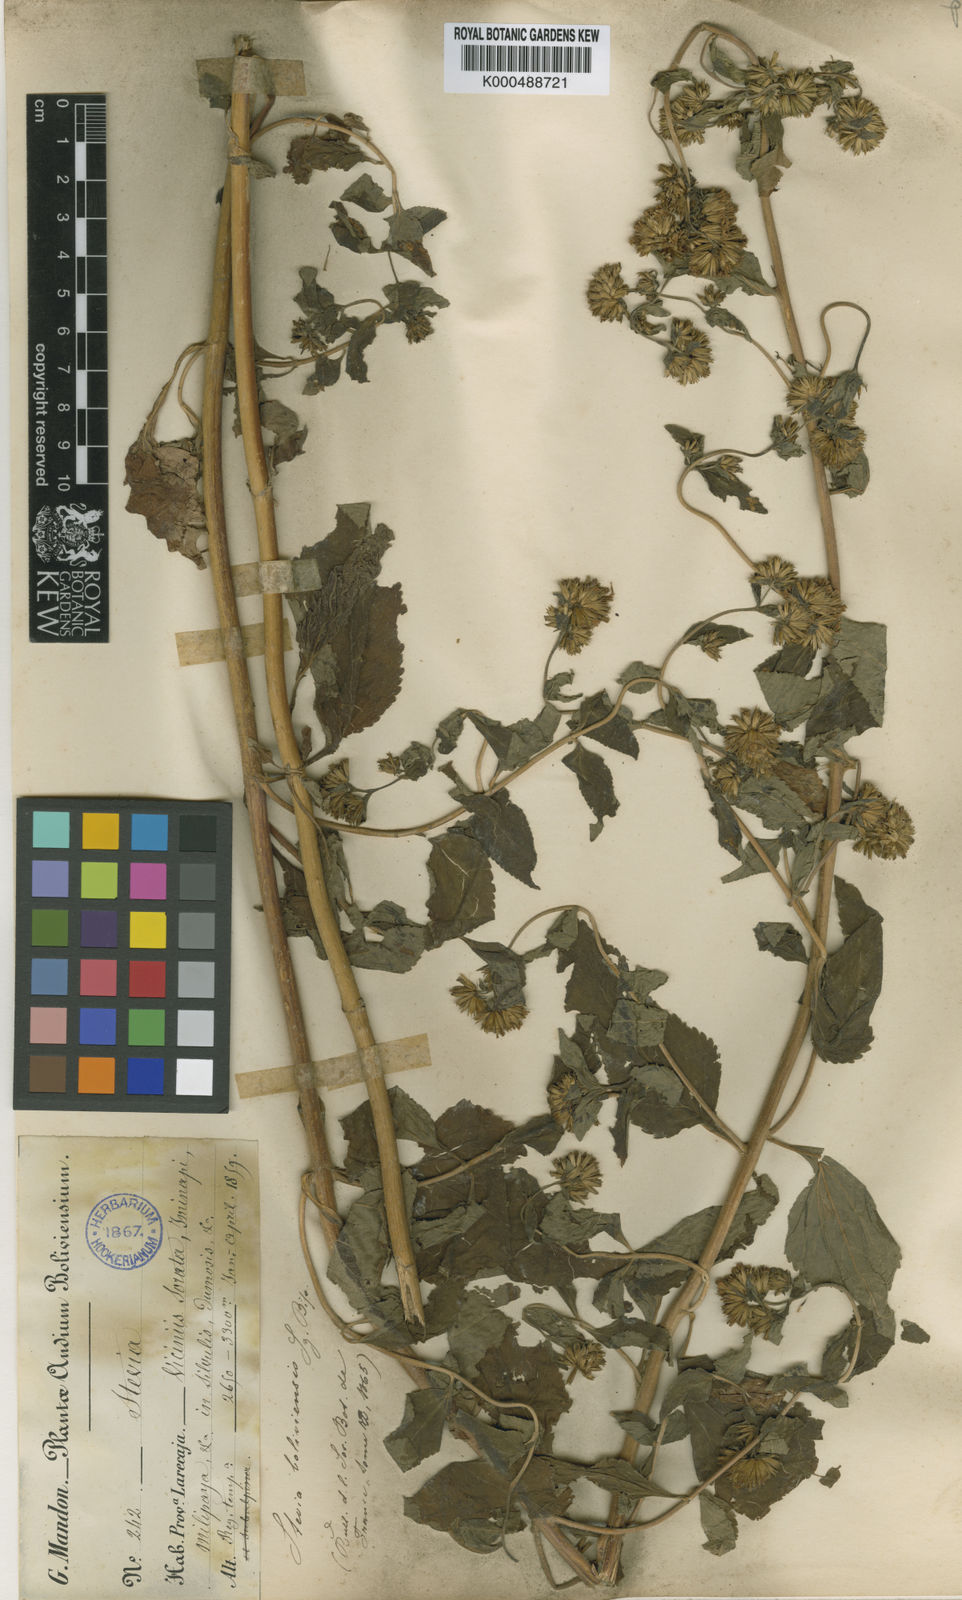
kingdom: Plantae
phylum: Tracheophyta
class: Magnoliopsida
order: Asterales
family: Asteraceae
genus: Stevia
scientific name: Stevia boliviensis
